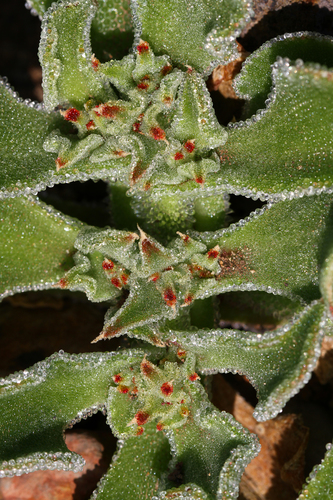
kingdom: Plantae
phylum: Tracheophyta
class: Magnoliopsida
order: Caryophyllales
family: Aizoaceae
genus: Mesembryanthemum
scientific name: Mesembryanthemum crystallinum
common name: Common iceplant
